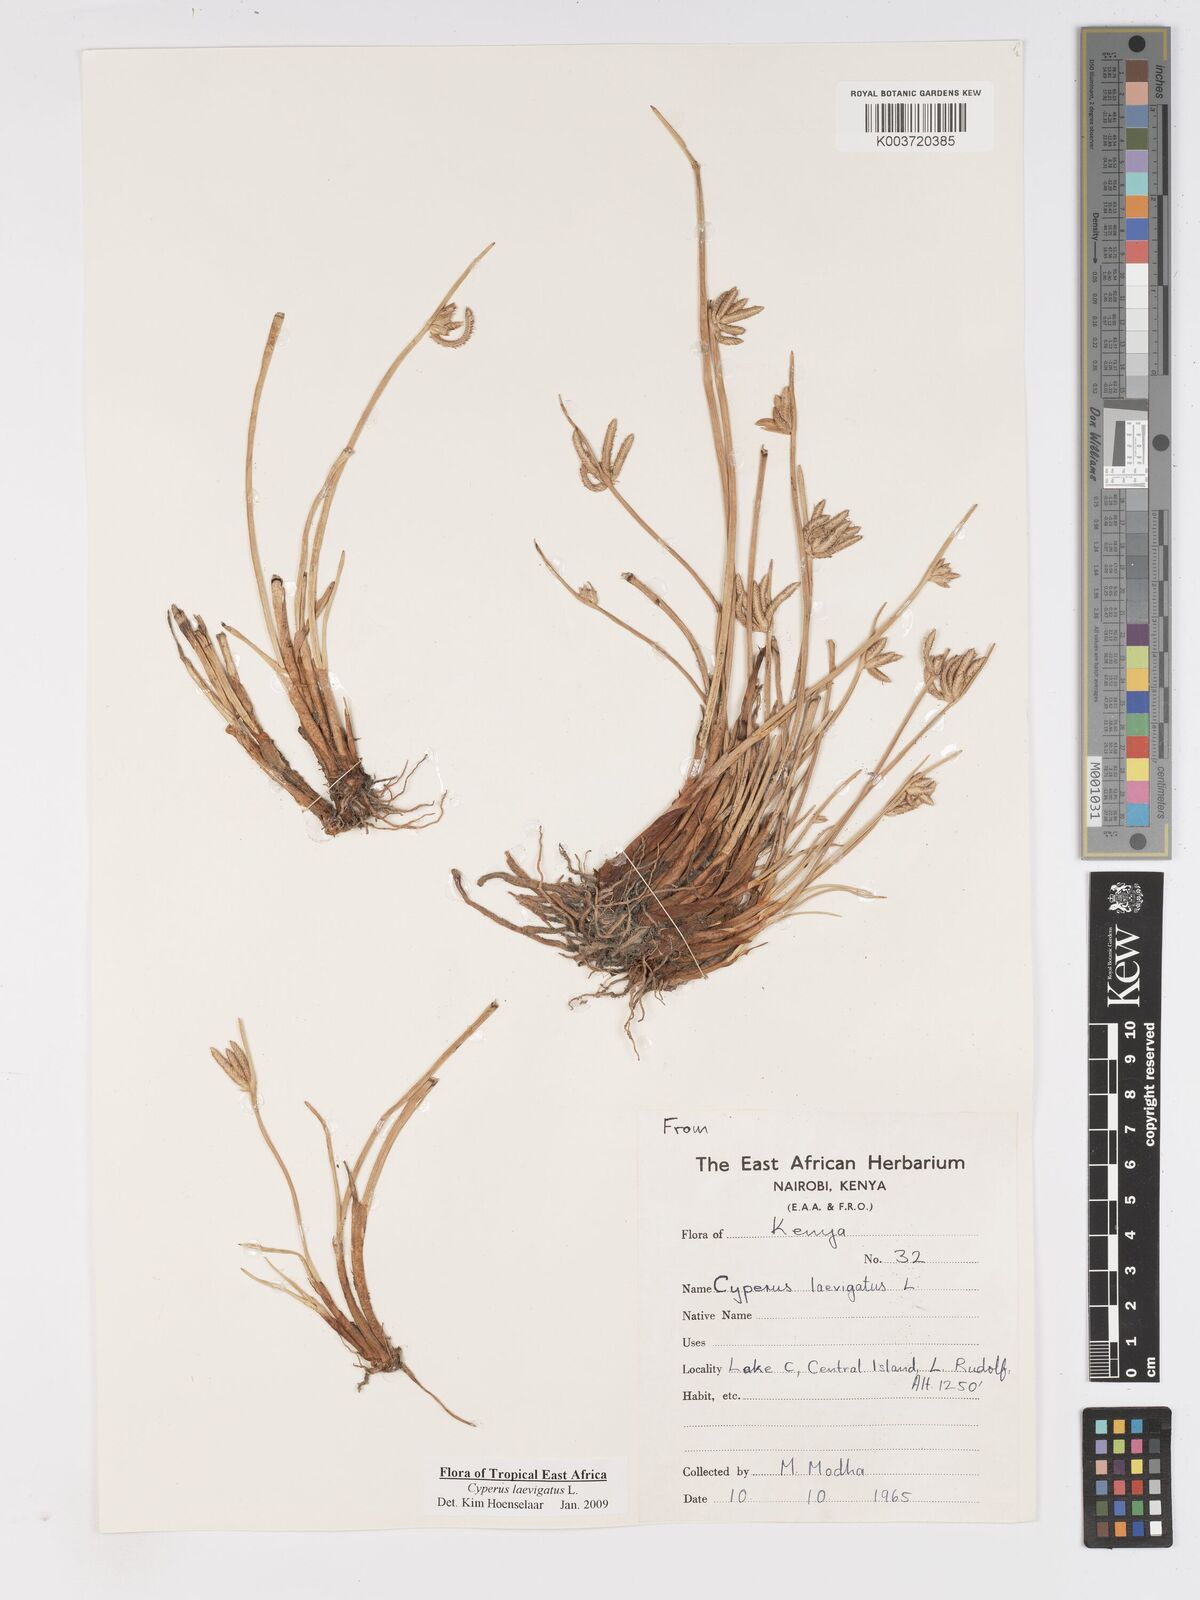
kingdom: Plantae
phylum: Tracheophyta
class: Liliopsida
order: Poales
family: Cyperaceae
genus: Cyperus
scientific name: Cyperus laevigatus
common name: Smooth flat sedge
